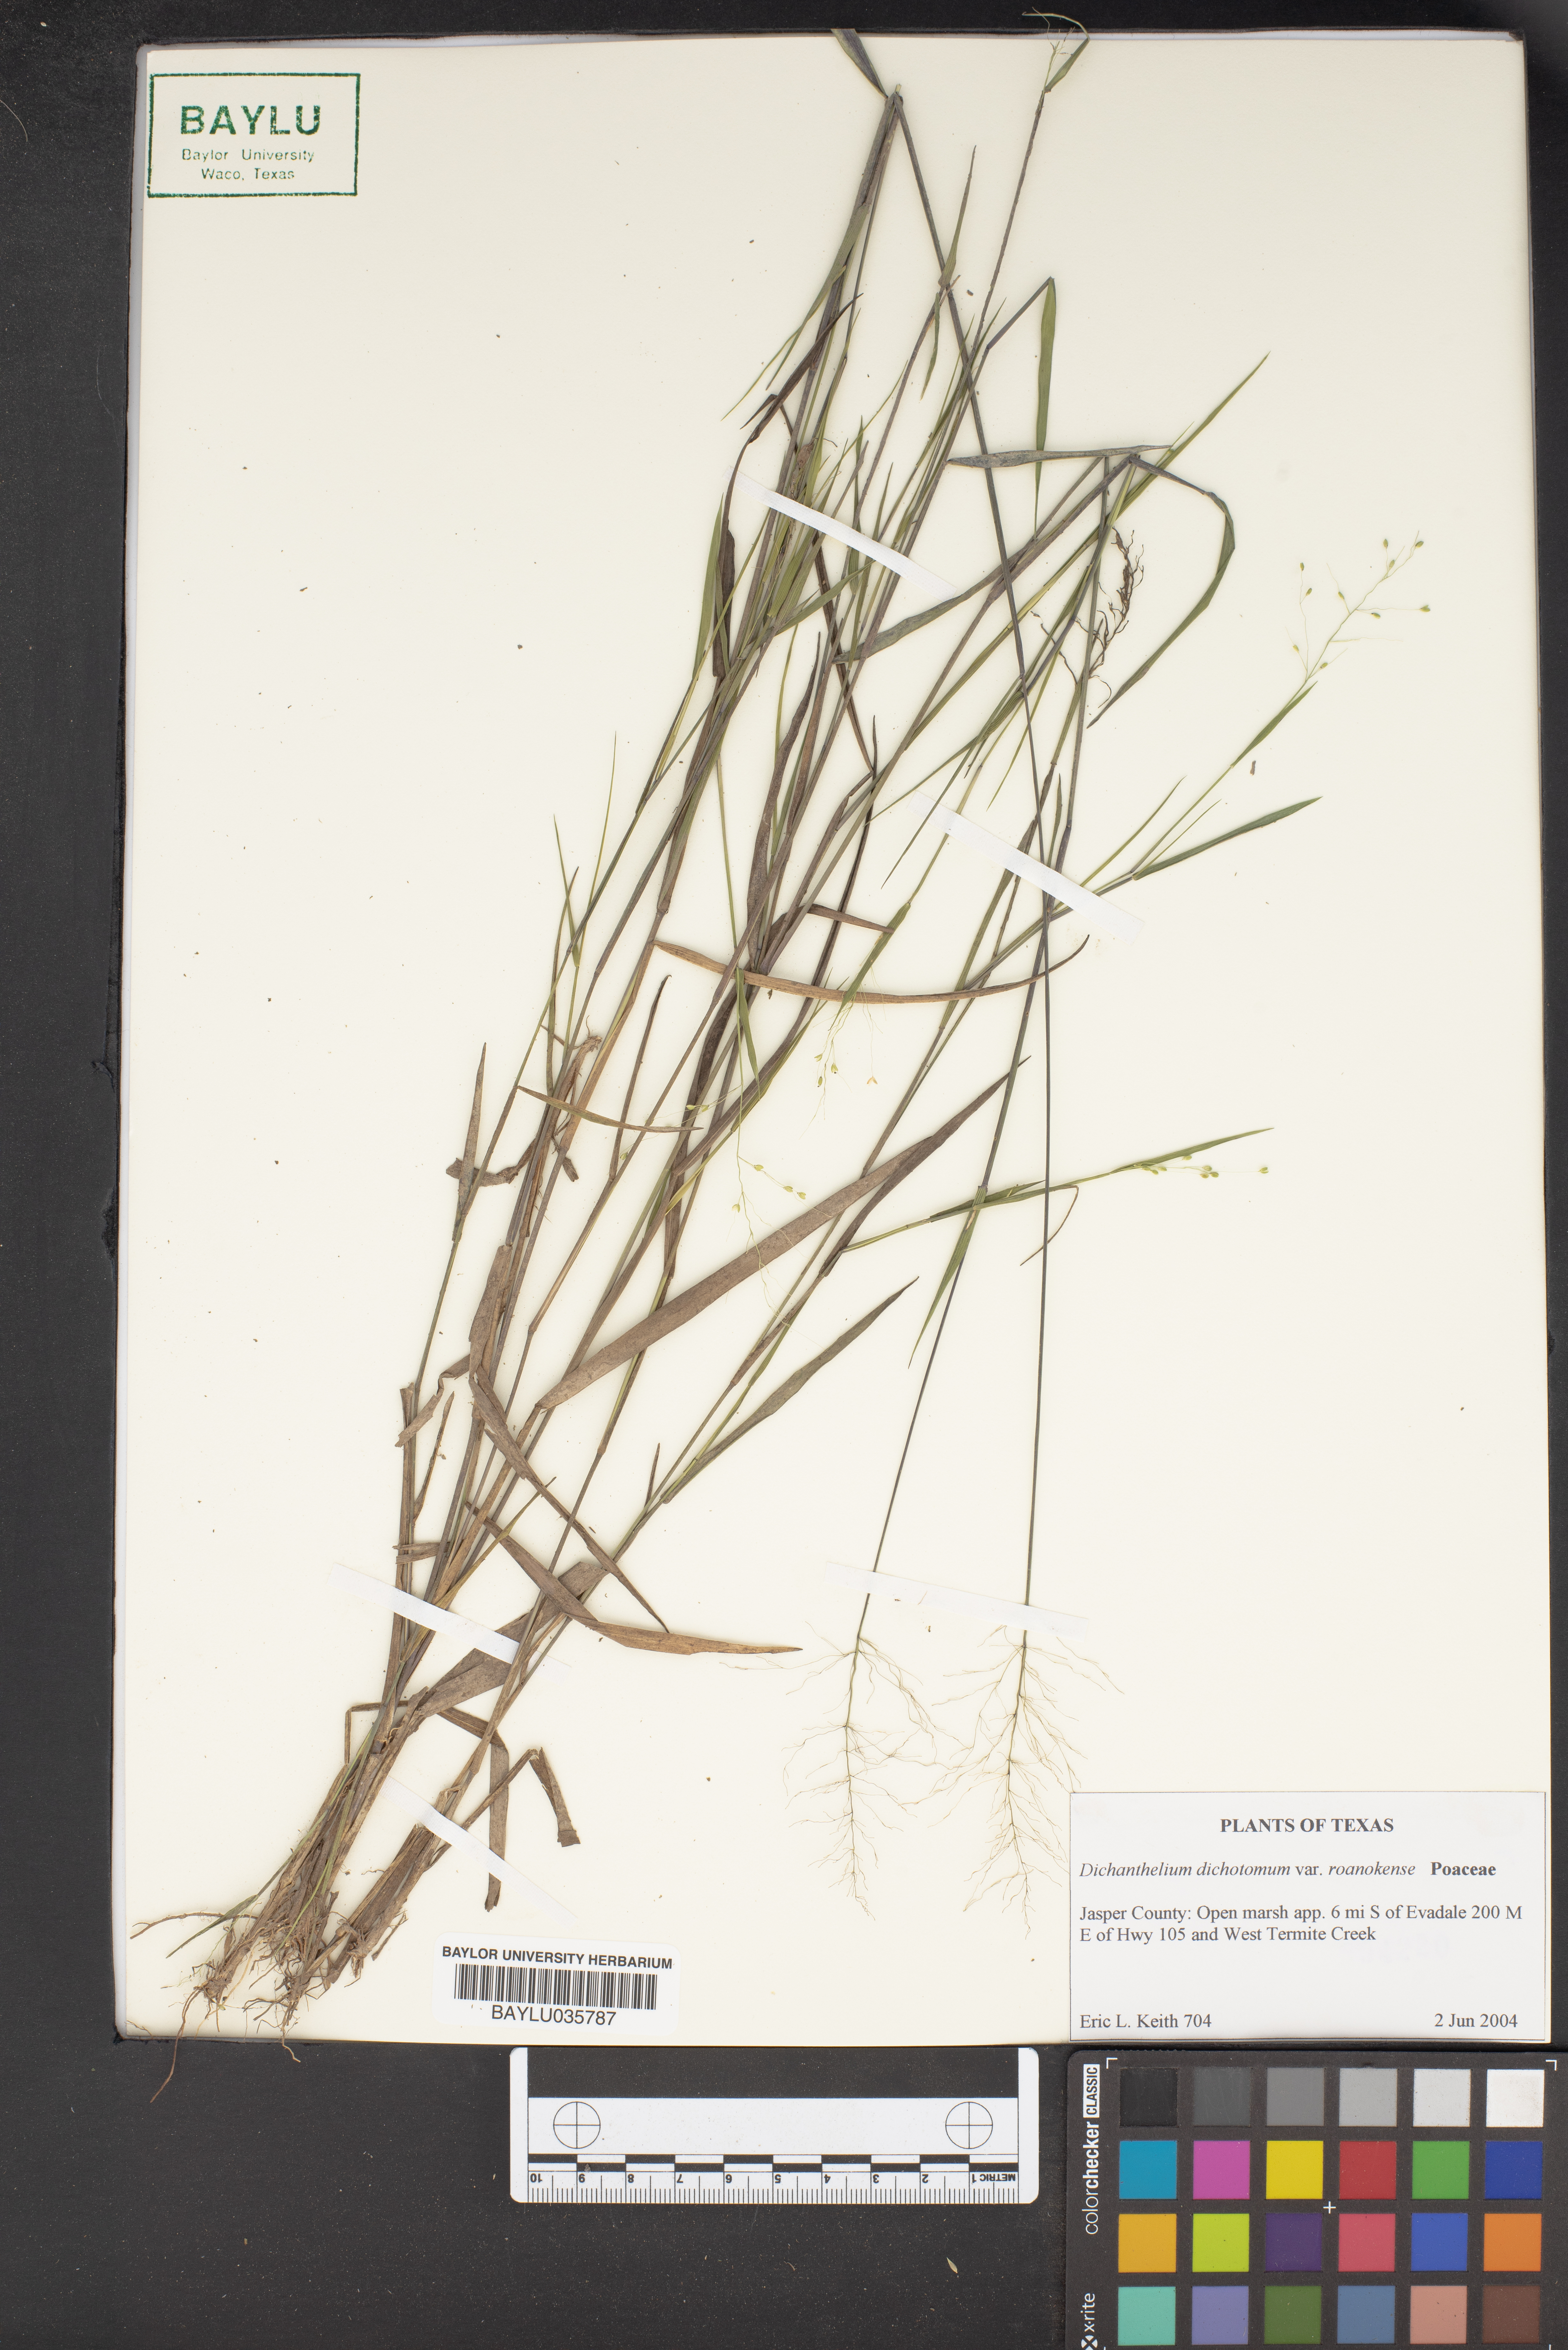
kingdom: Plantae
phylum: Tracheophyta
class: Liliopsida
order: Poales
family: Poaceae
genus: Dichanthelium
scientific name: Dichanthelium dichotomum
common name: Cypress panicgrass
